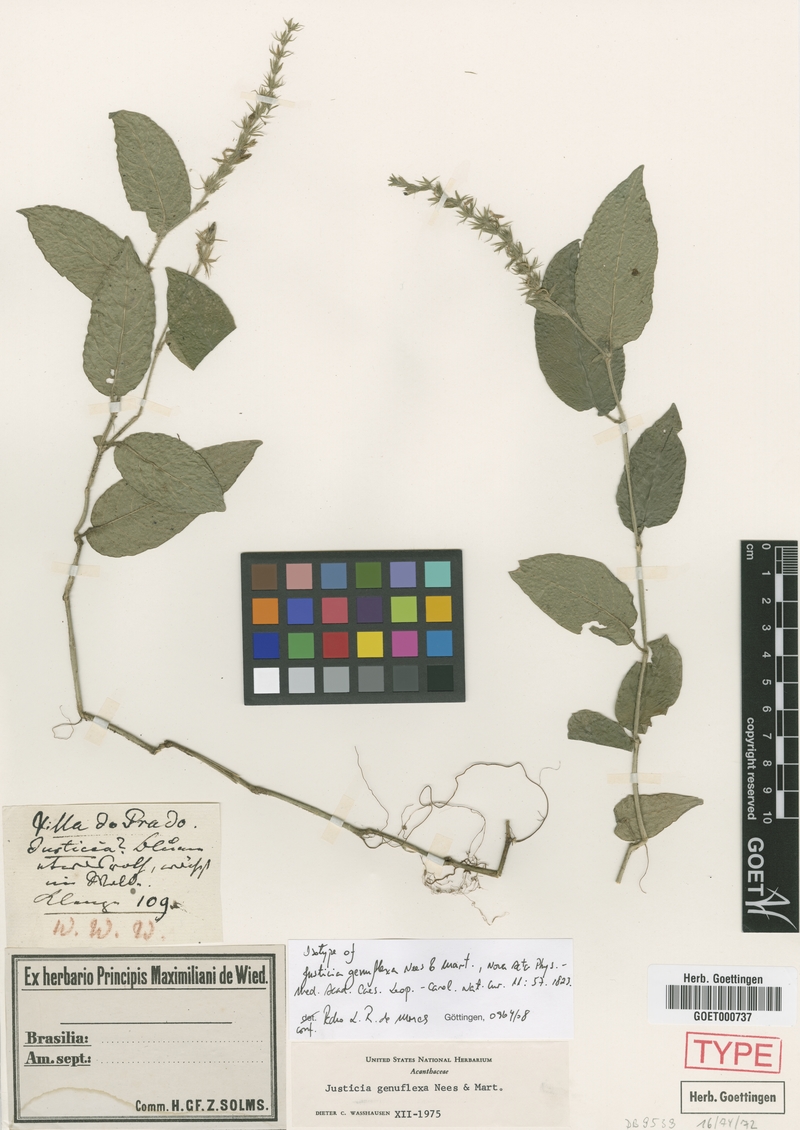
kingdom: Plantae
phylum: Tracheophyta
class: Magnoliopsida
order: Lamiales
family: Acanthaceae
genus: Justicia
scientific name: Justicia genuflexa
